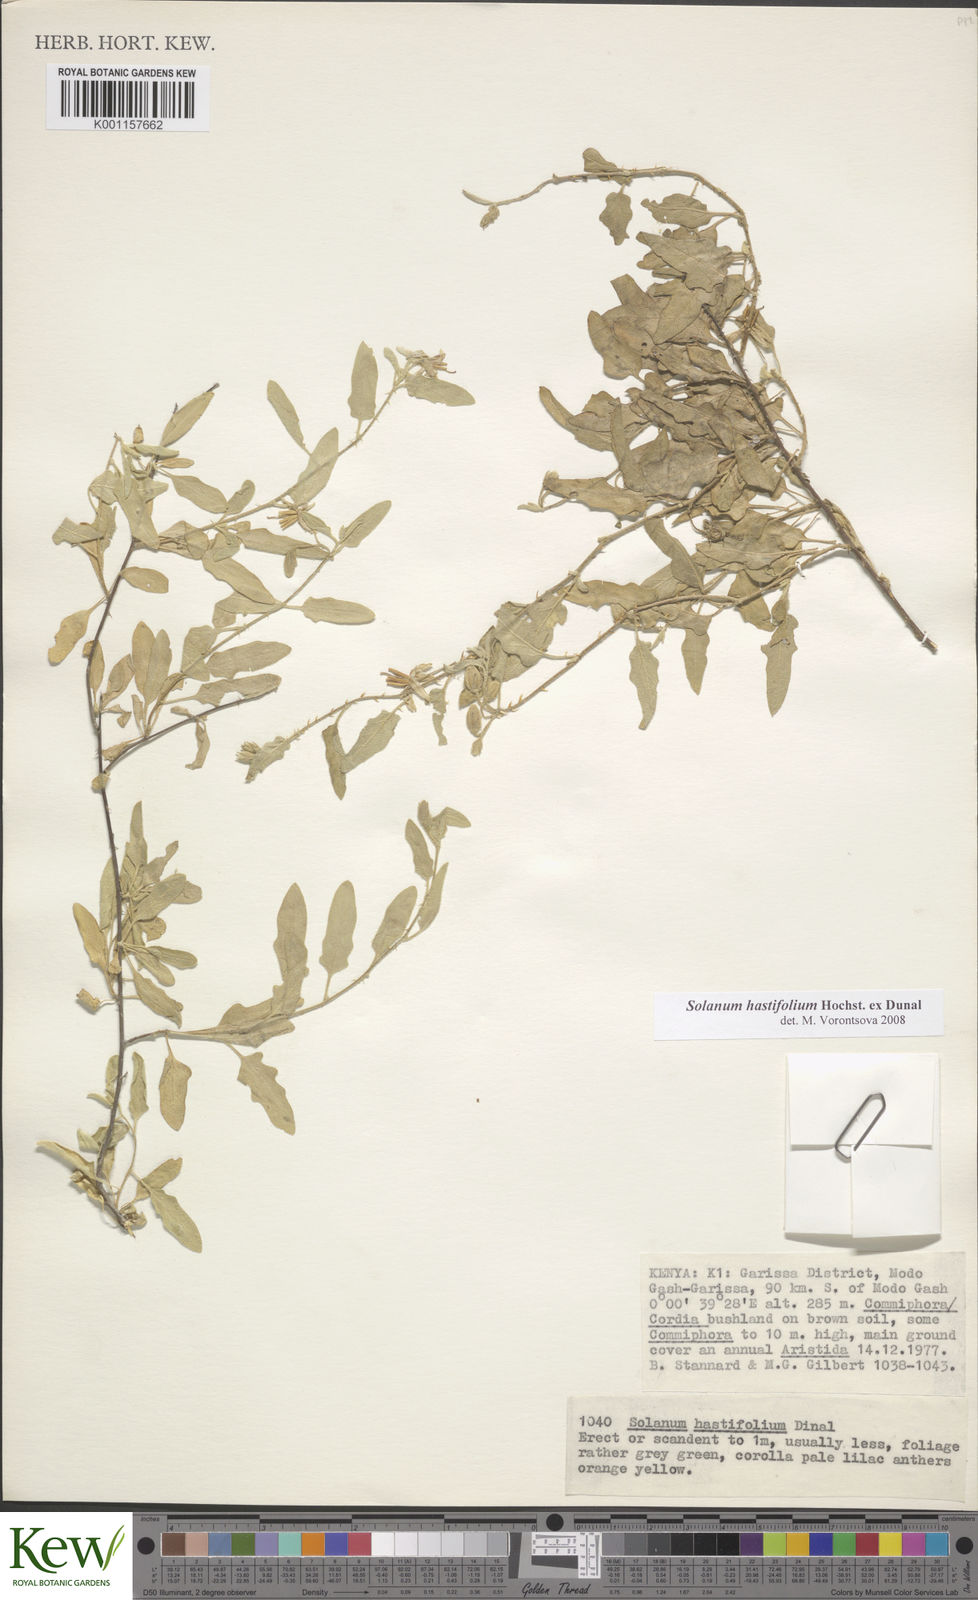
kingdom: Plantae
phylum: Tracheophyta
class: Magnoliopsida
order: Solanales
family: Solanaceae
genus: Solanum
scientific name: Solanum hastifolium
